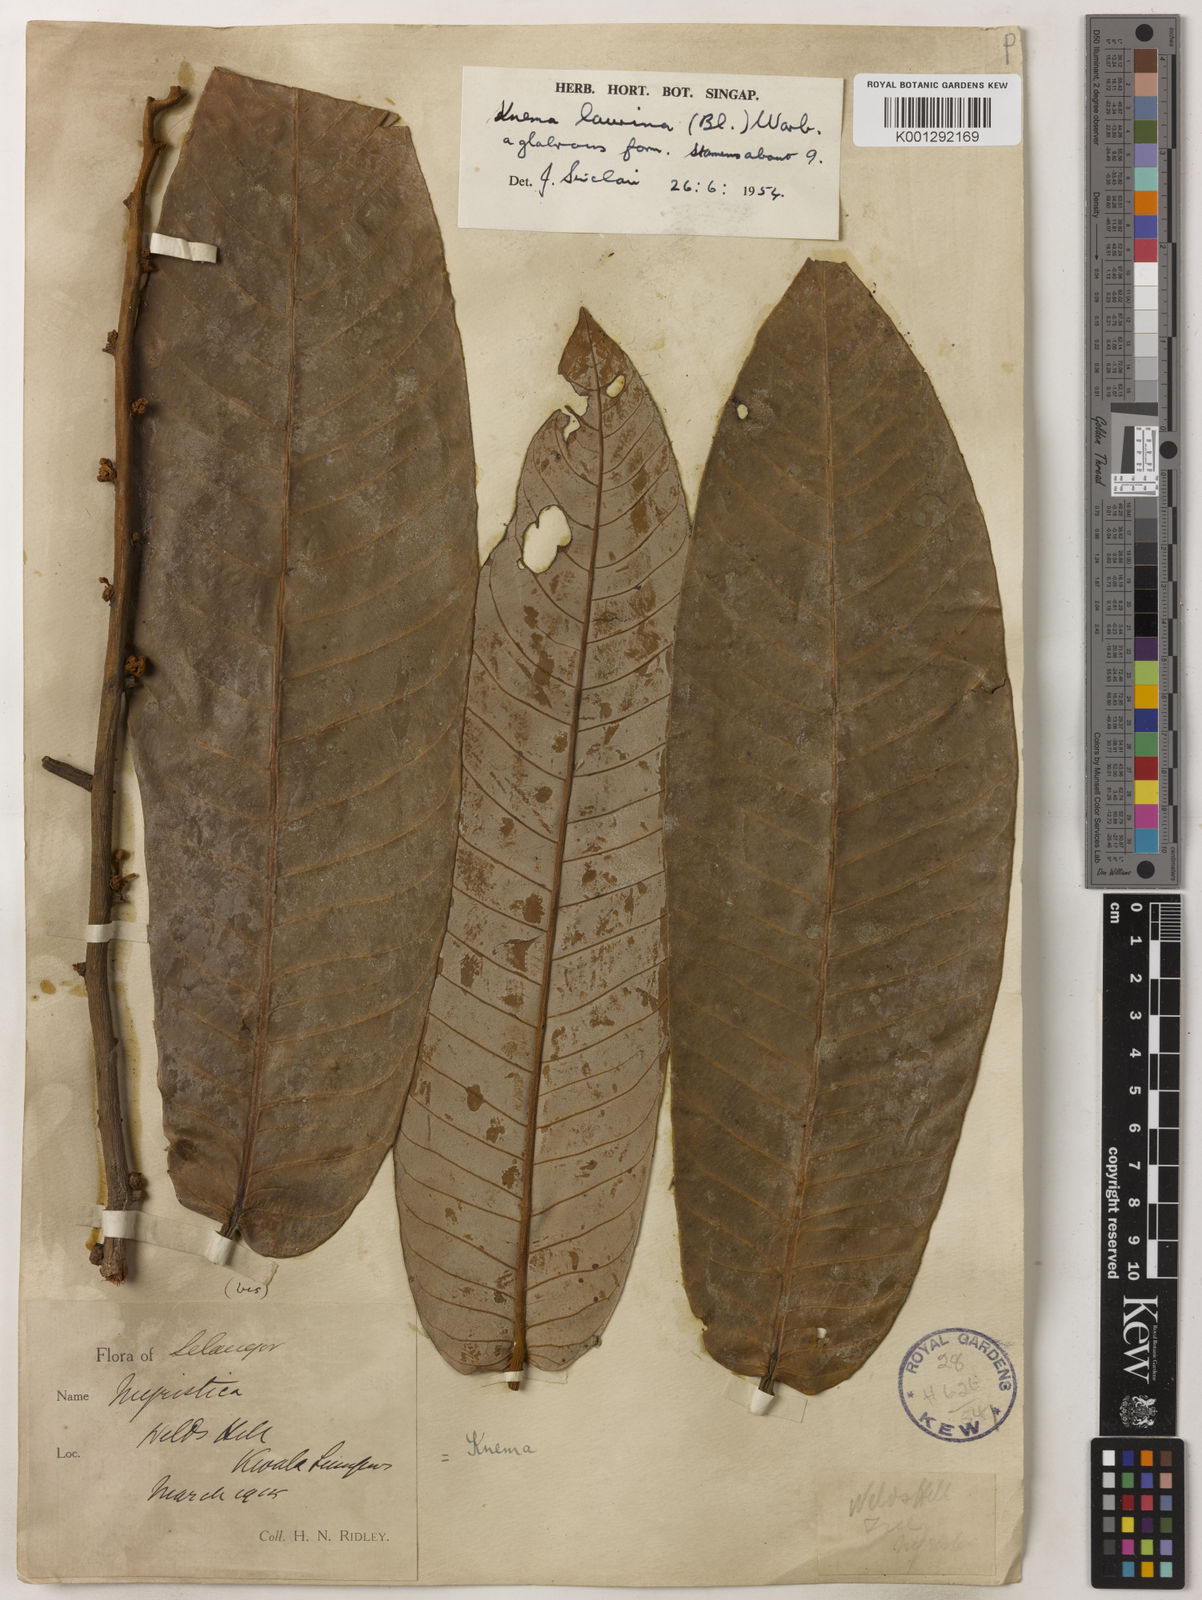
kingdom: Plantae
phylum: Tracheophyta
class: Magnoliopsida
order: Magnoliales
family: Myristicaceae
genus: Knema
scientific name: Knema laurina
